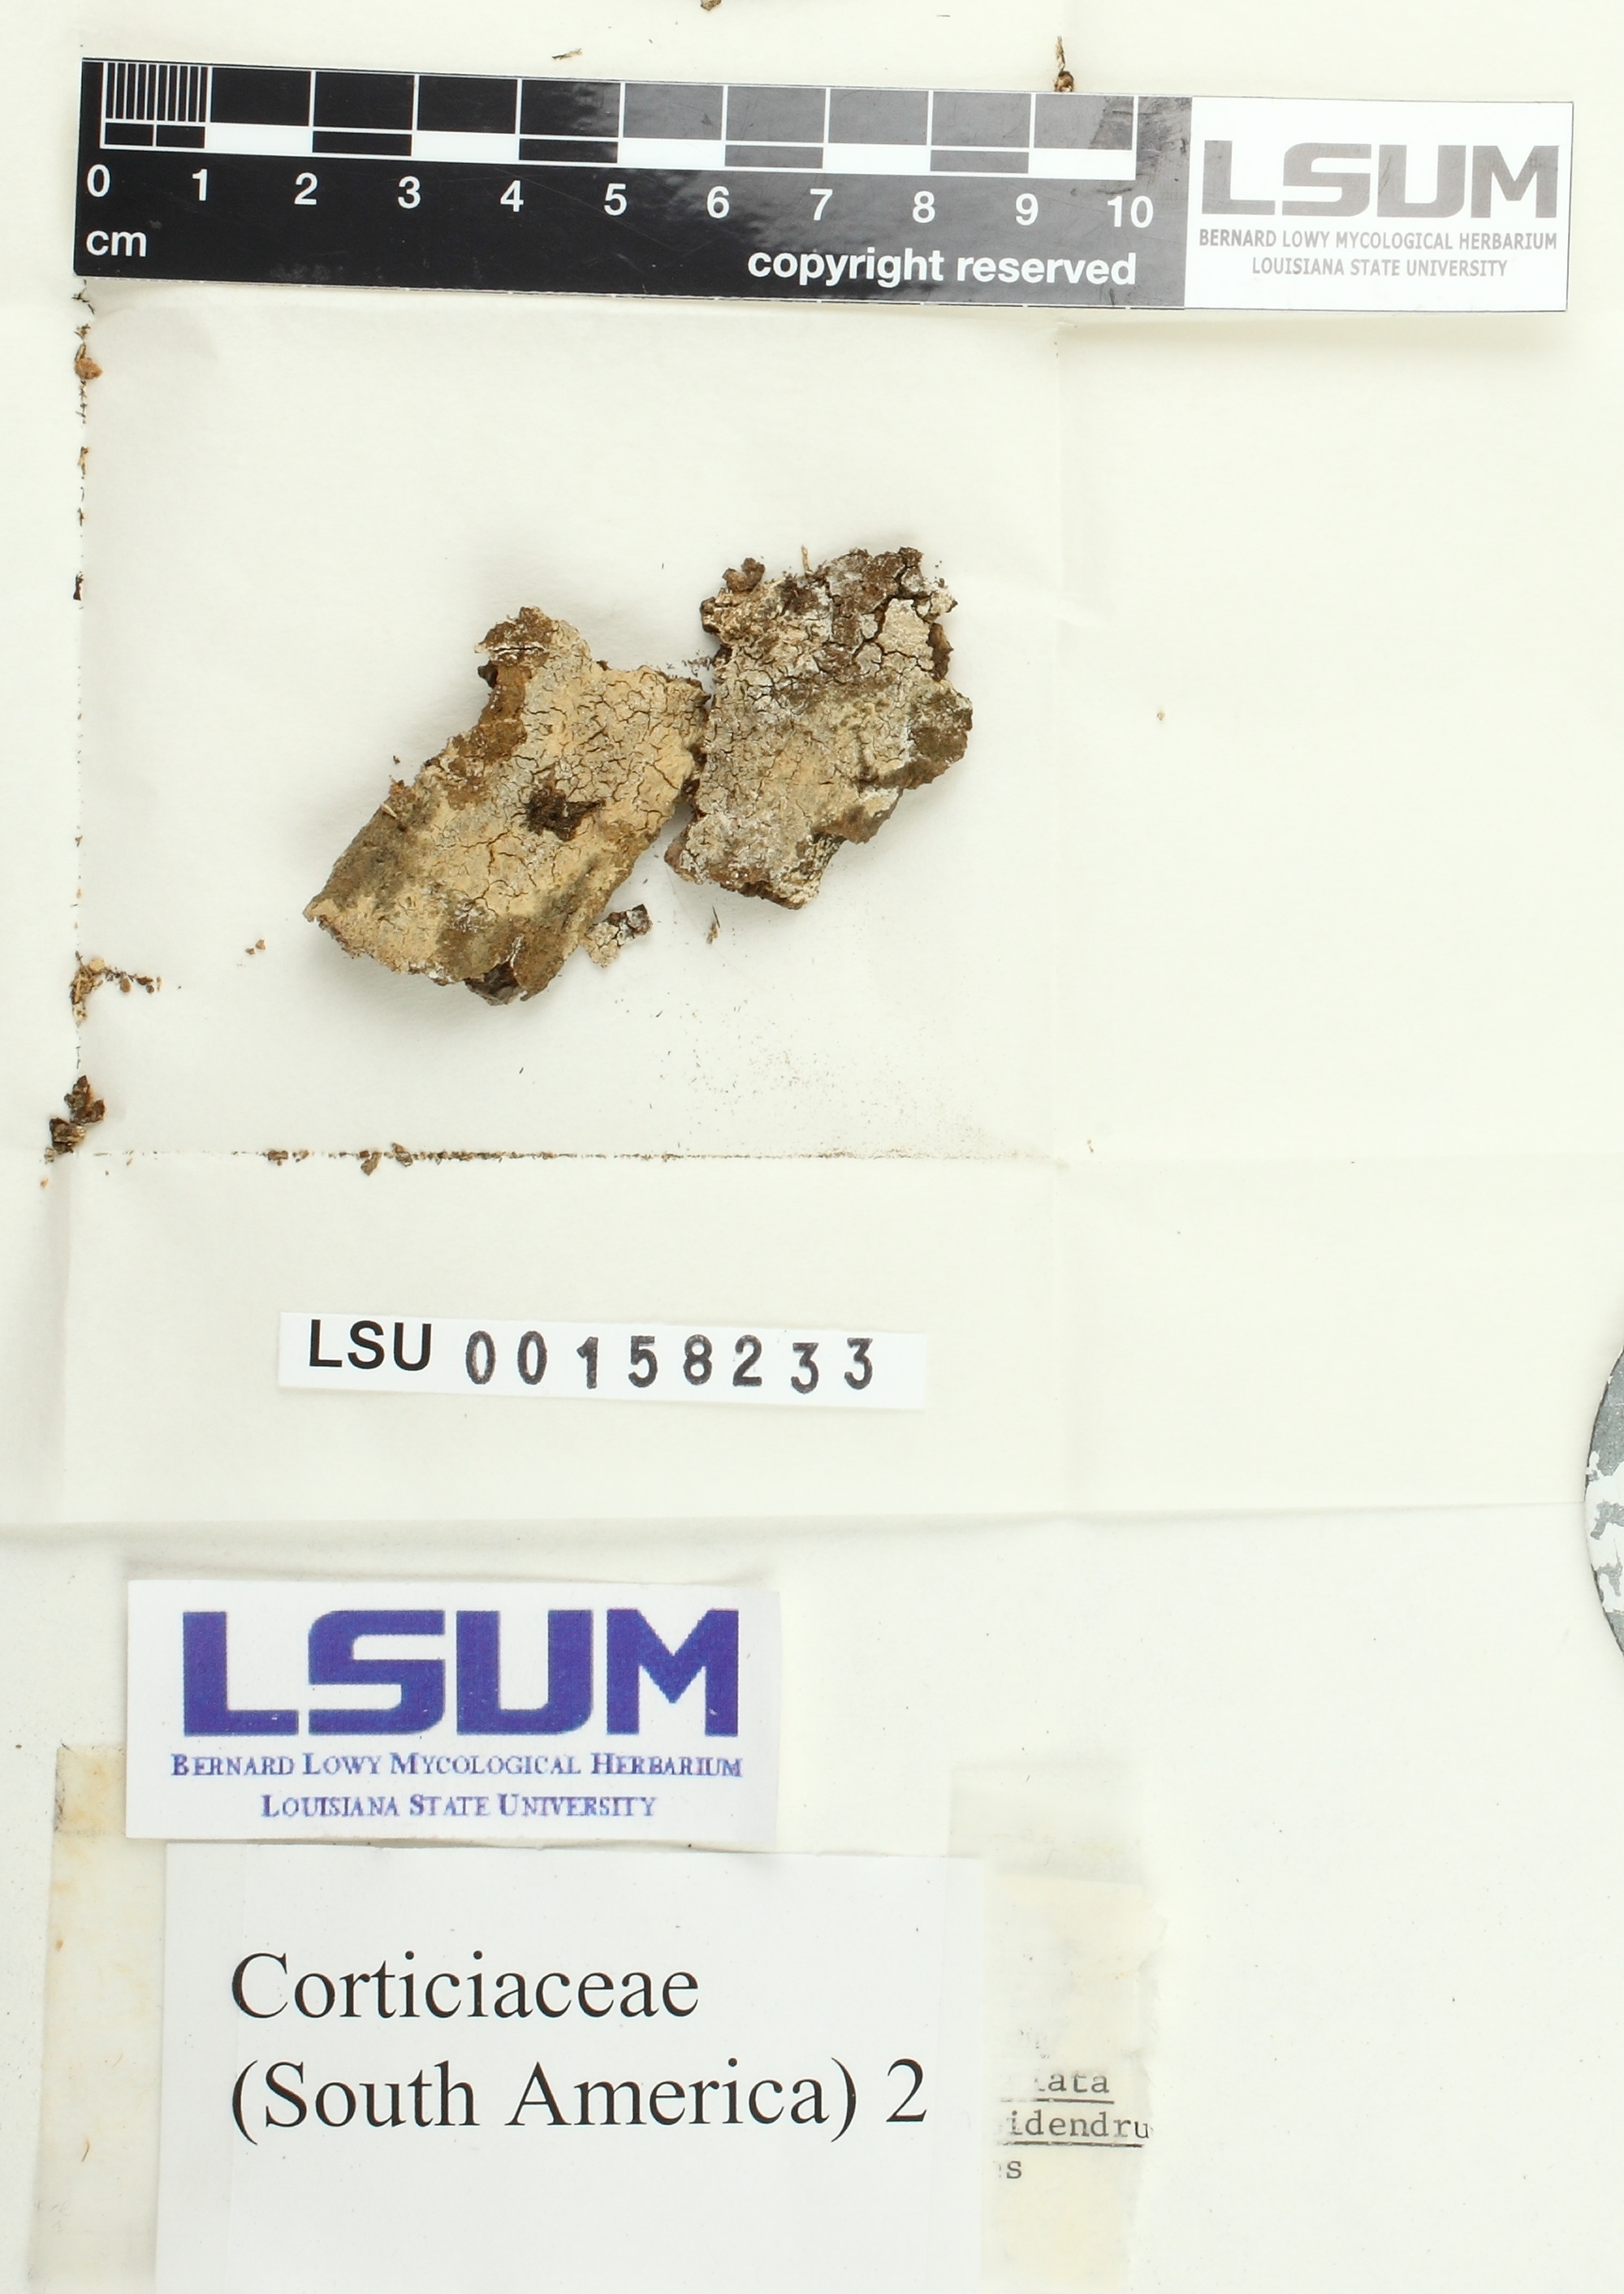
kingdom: Fungi
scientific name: Fungi
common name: Fungi
